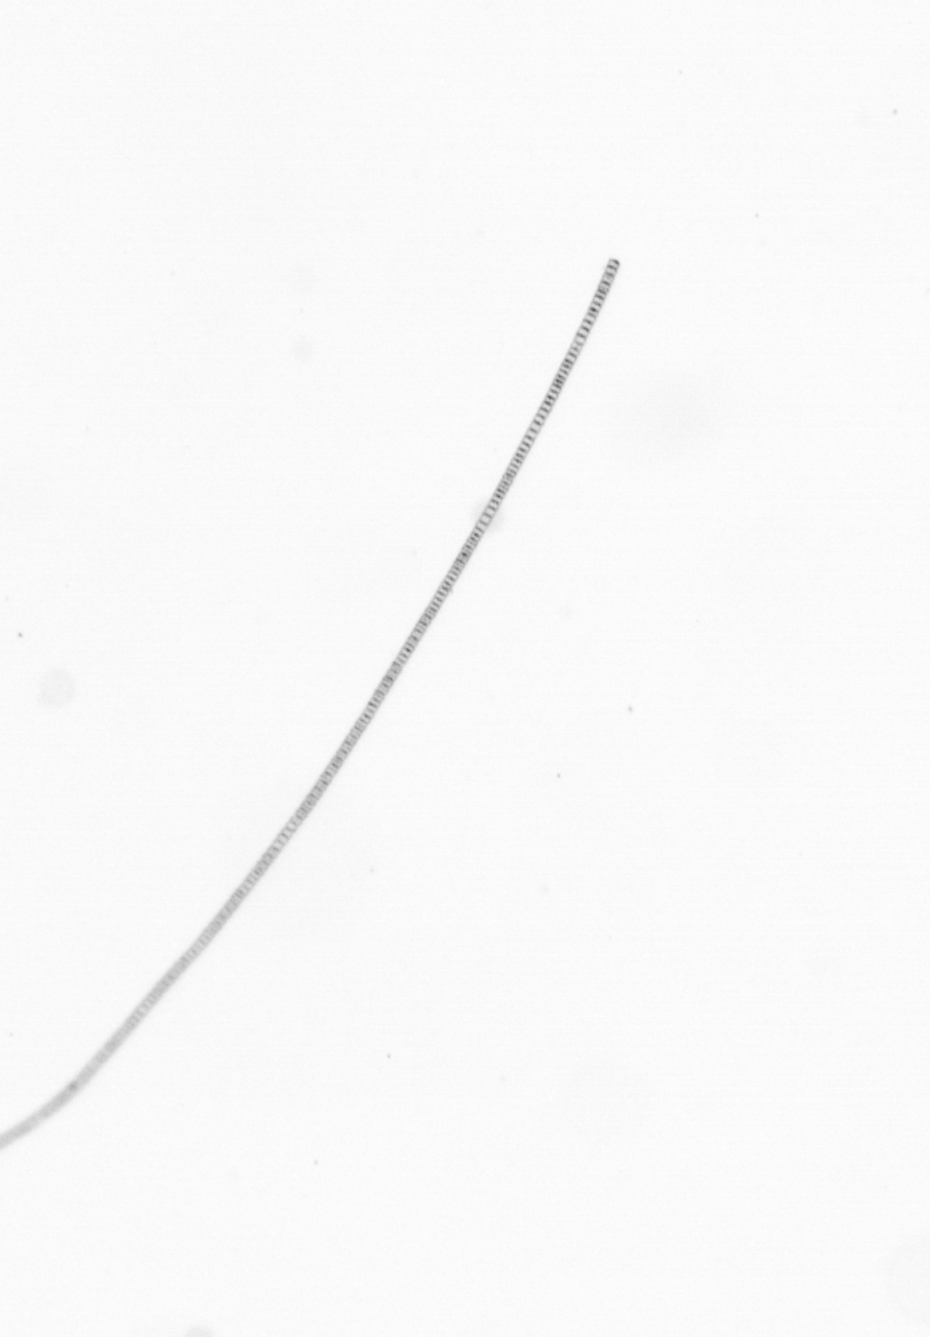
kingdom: Chromista
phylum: Ochrophyta
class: Bacillariophyceae
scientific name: Bacillariophyceae
